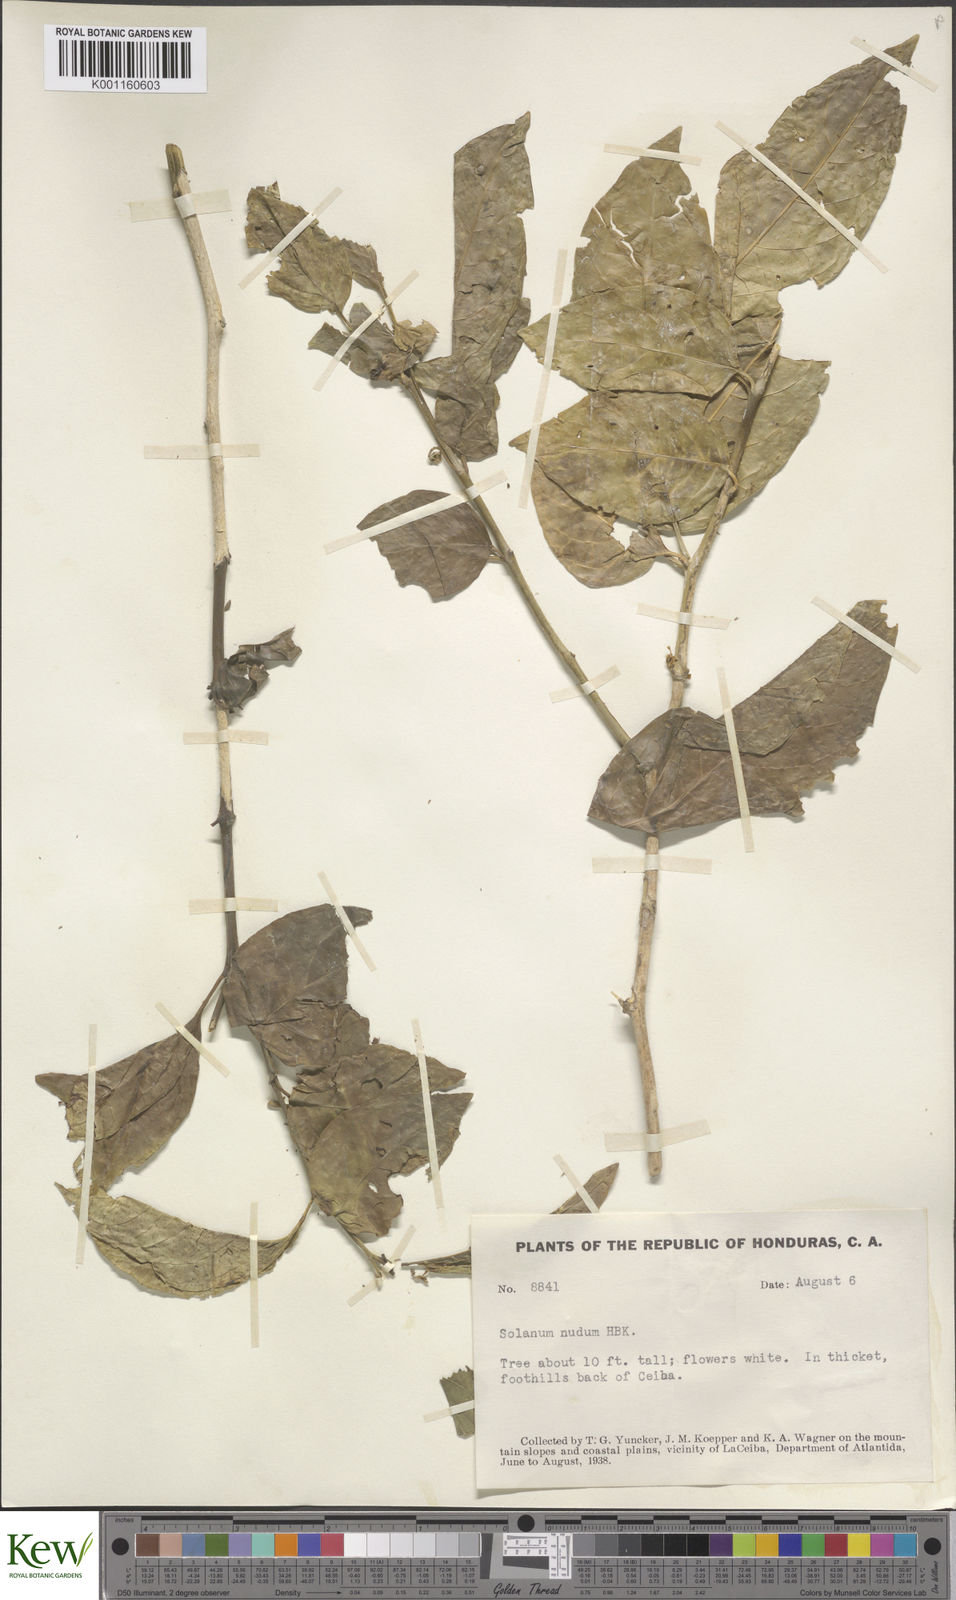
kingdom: Plantae
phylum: Tracheophyta
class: Magnoliopsida
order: Solanales
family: Solanaceae
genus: Solanum
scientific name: Solanum nudum
